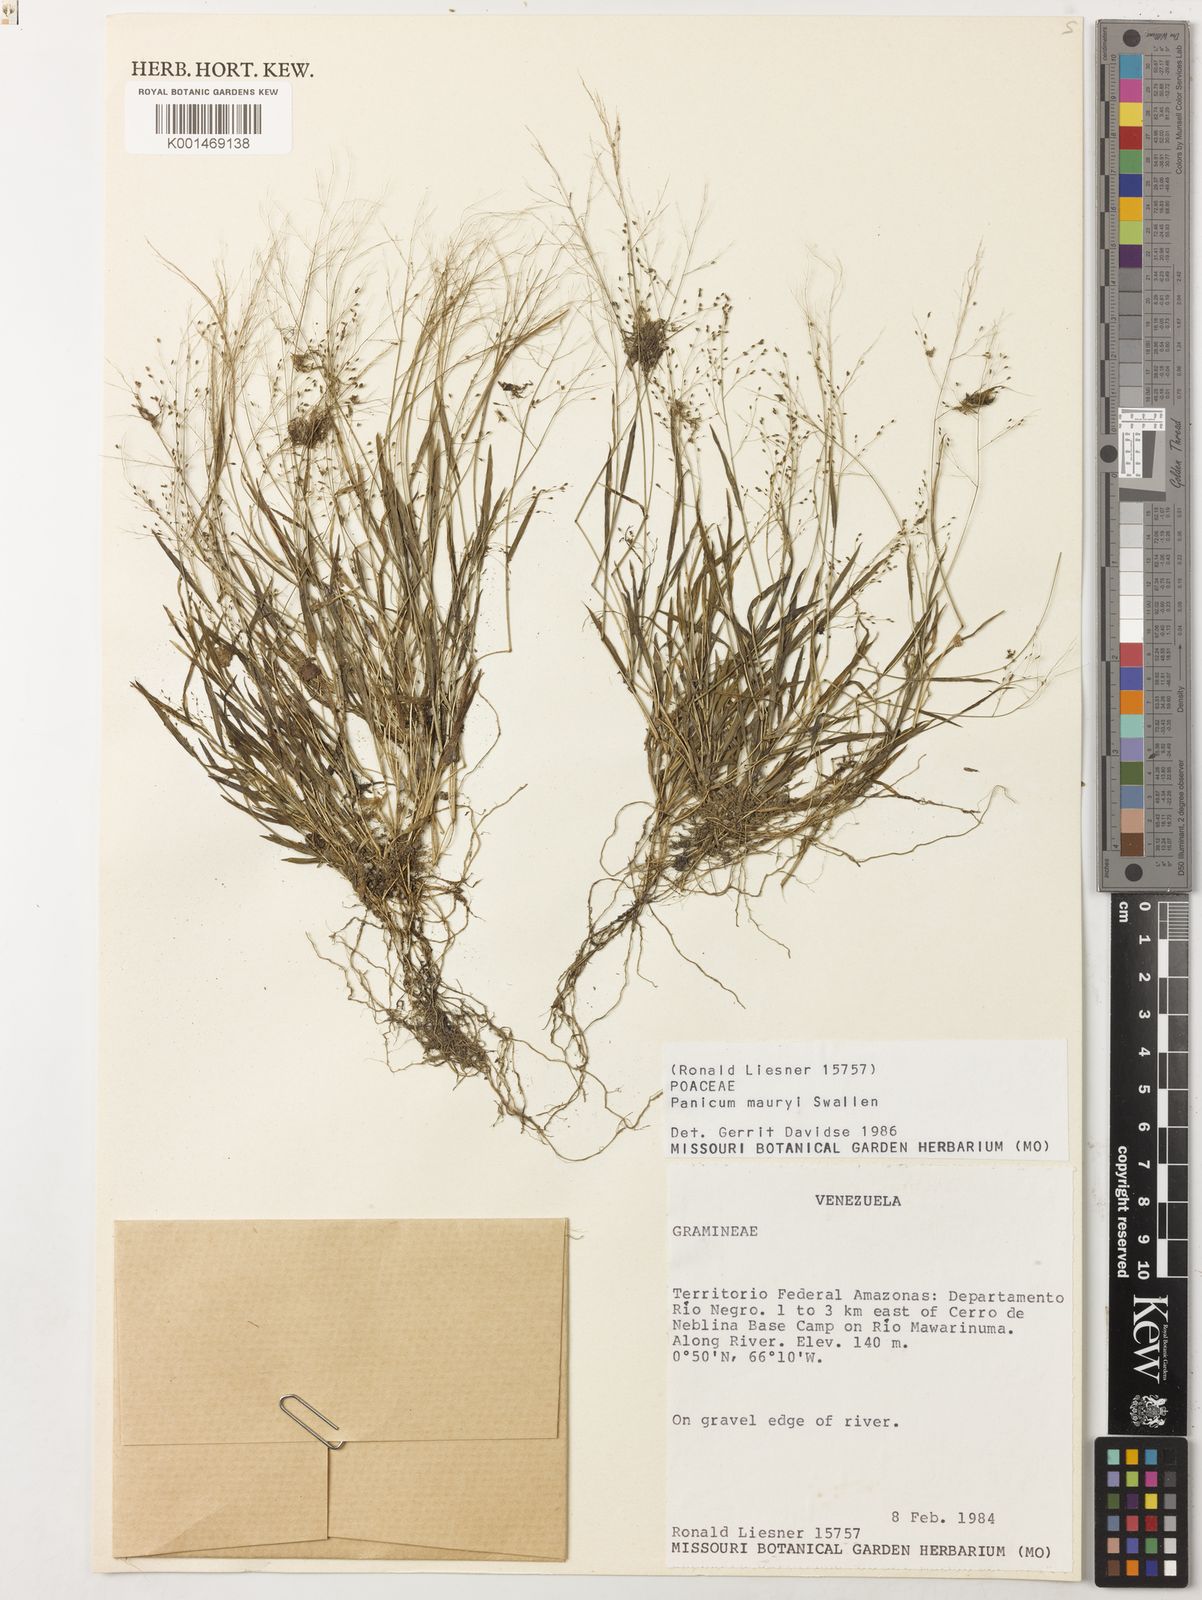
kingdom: Plantae
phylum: Tracheophyta
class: Liliopsida
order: Poales
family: Poaceae
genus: Trichanthecium
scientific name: Trichanthecium micranthum
